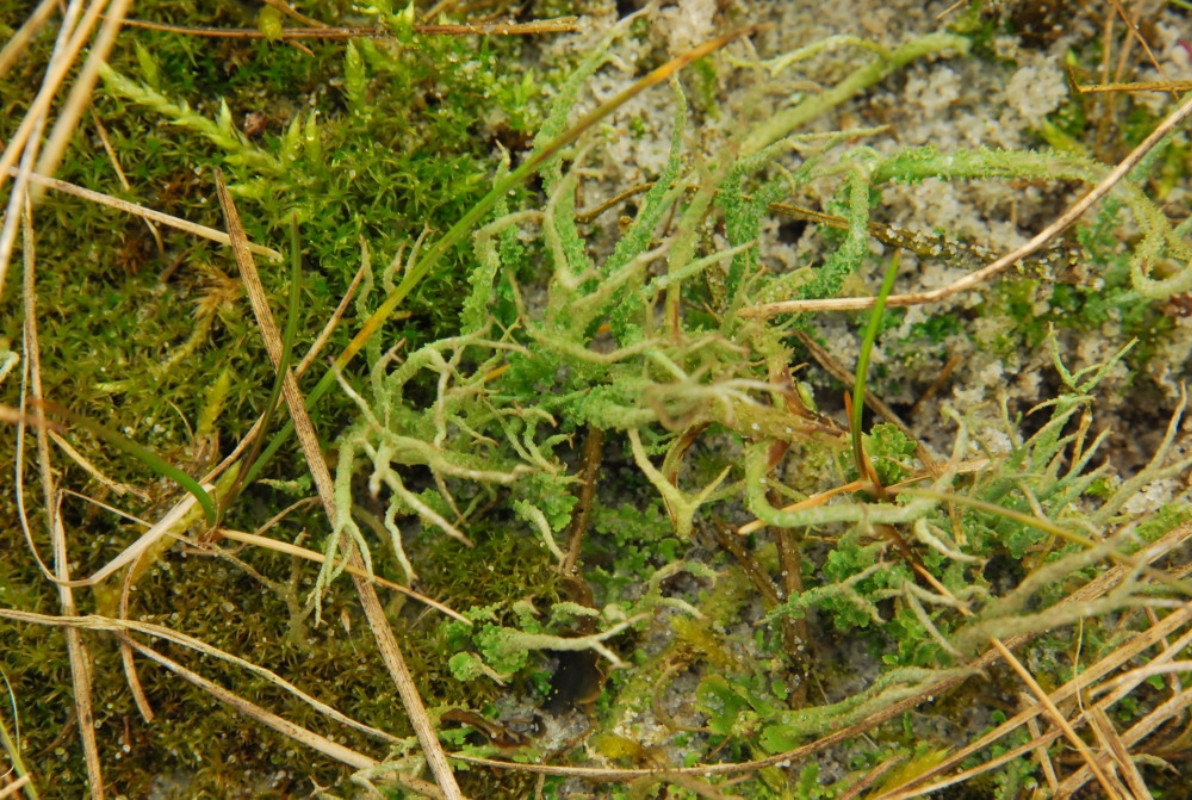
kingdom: Fungi
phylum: Ascomycota
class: Lecanoromycetes
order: Lecanorales
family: Cladoniaceae
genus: Cladonia
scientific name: Cladonia scabriuscula
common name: ru bægerlav
